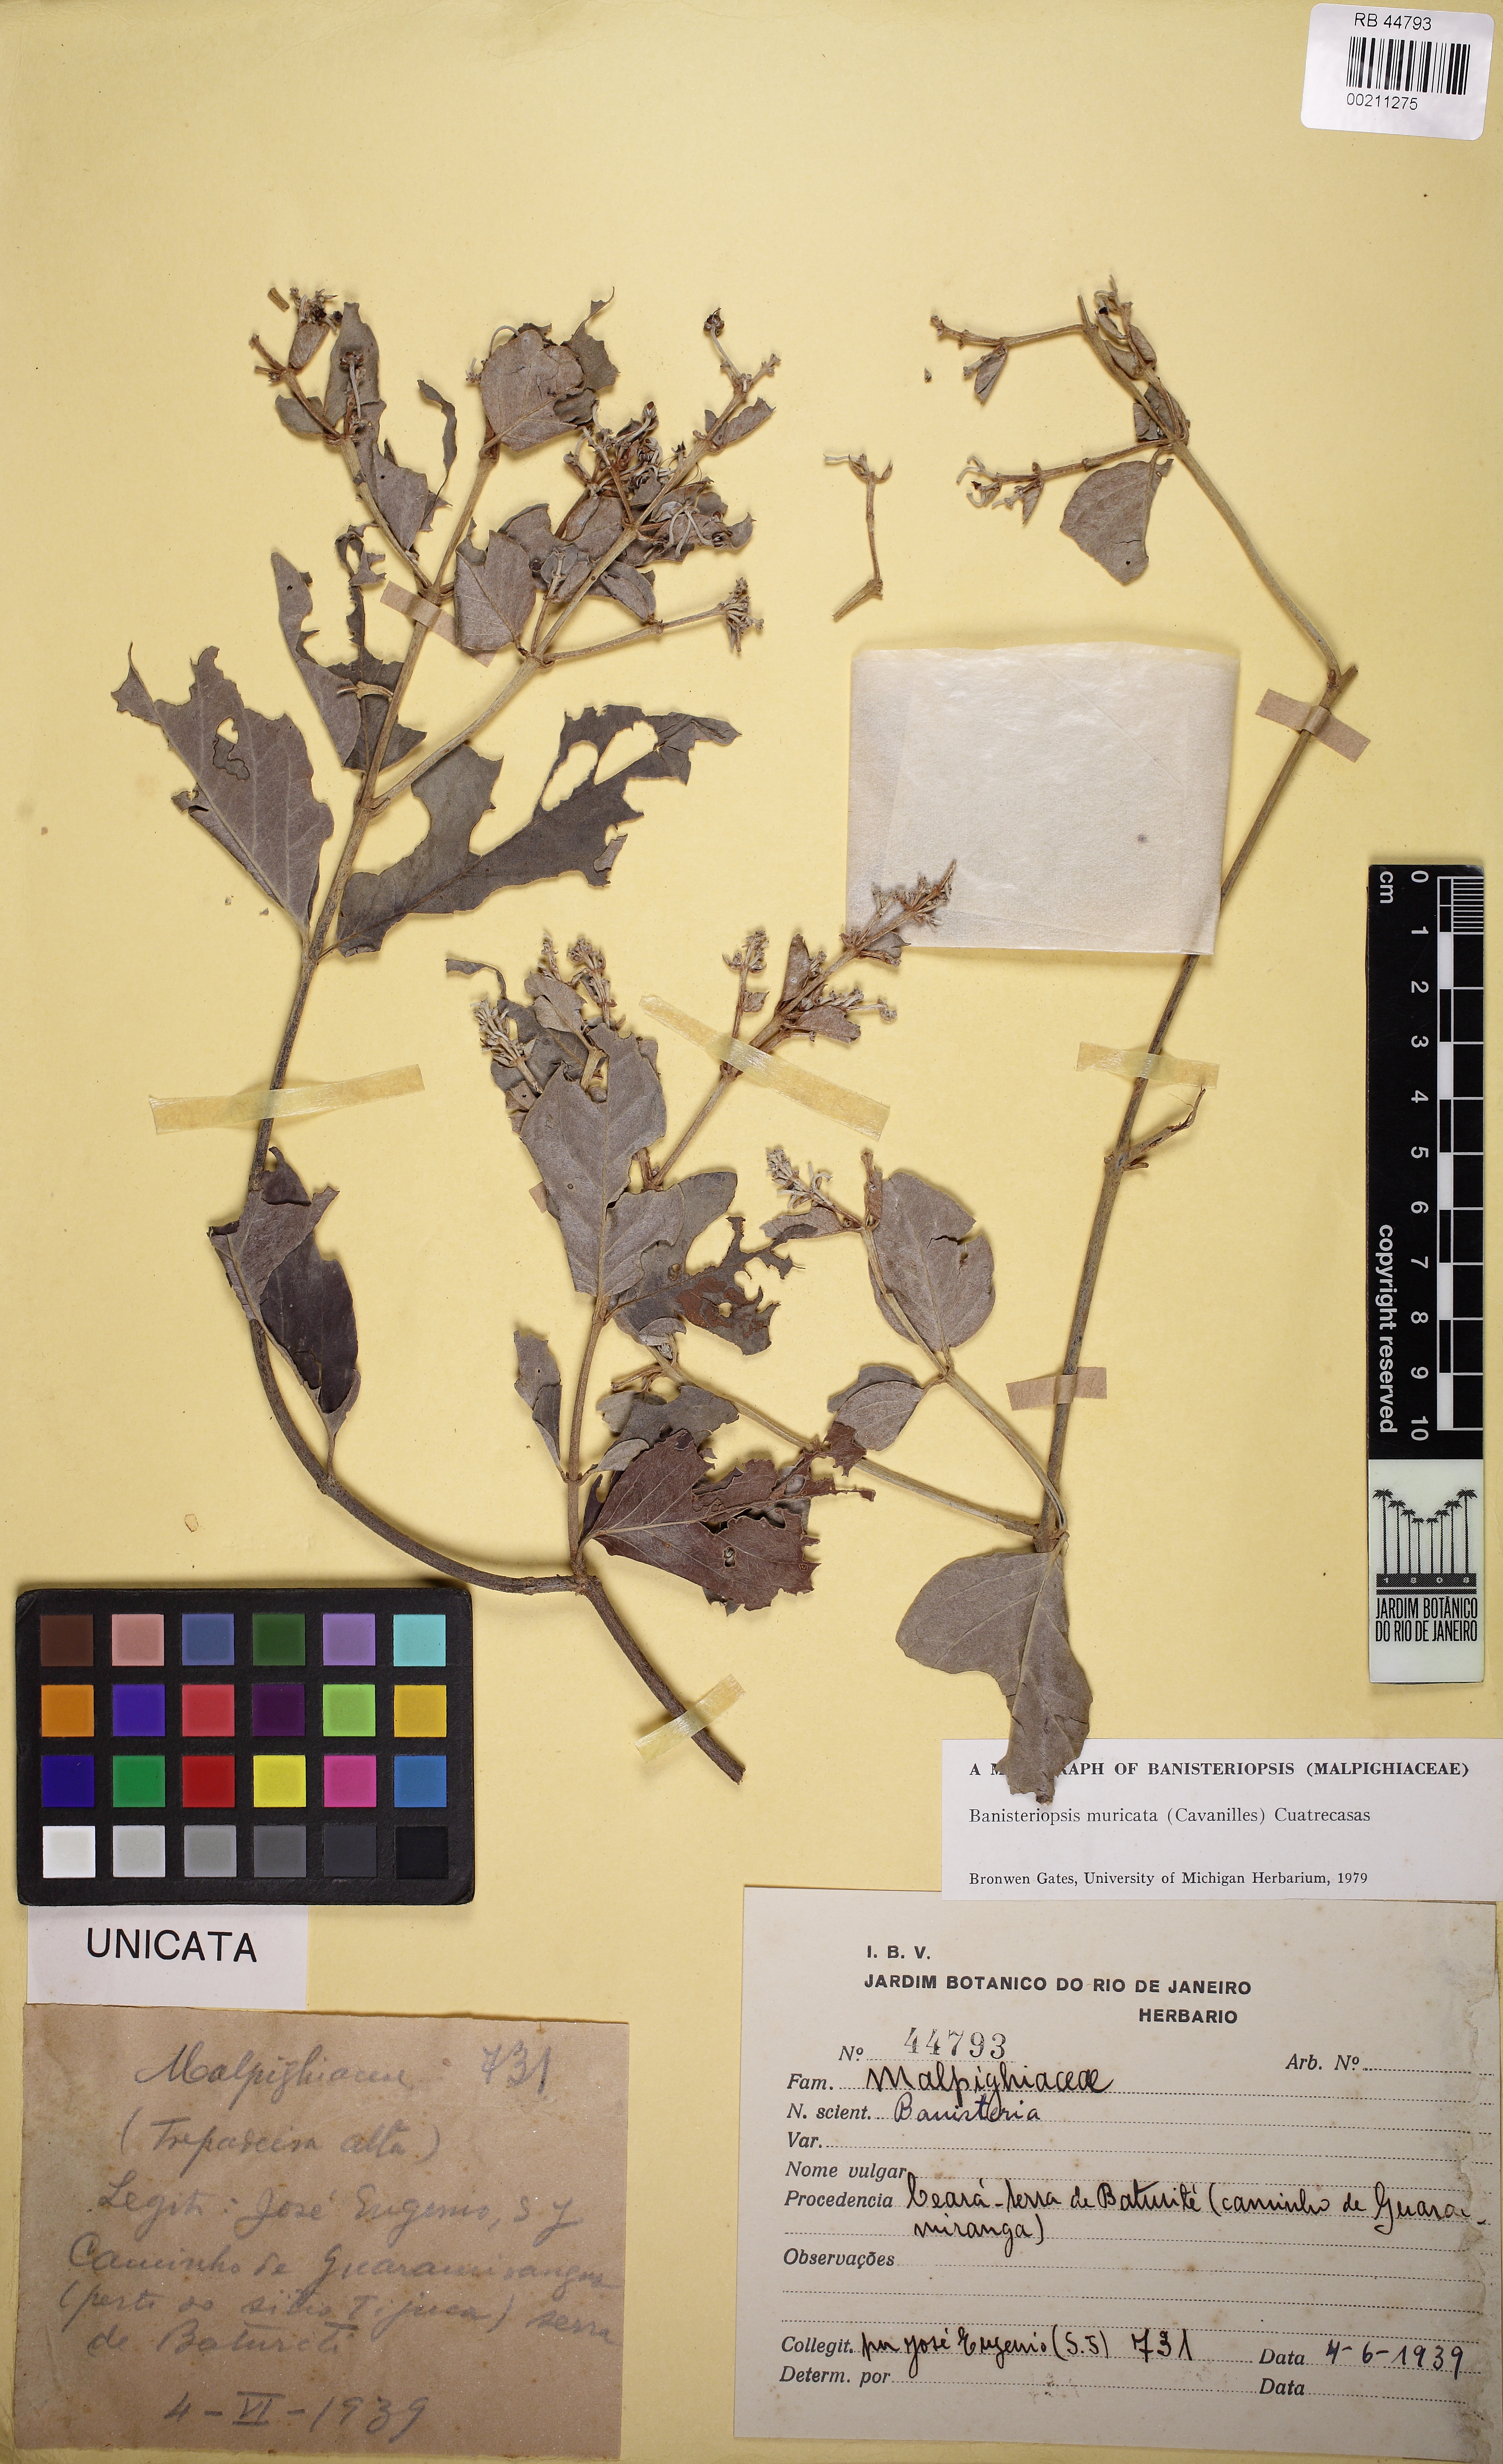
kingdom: Plantae
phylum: Tracheophyta
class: Magnoliopsida
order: Malpighiales
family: Malpighiaceae
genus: Banisteriopsis
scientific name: Banisteriopsis muricata
